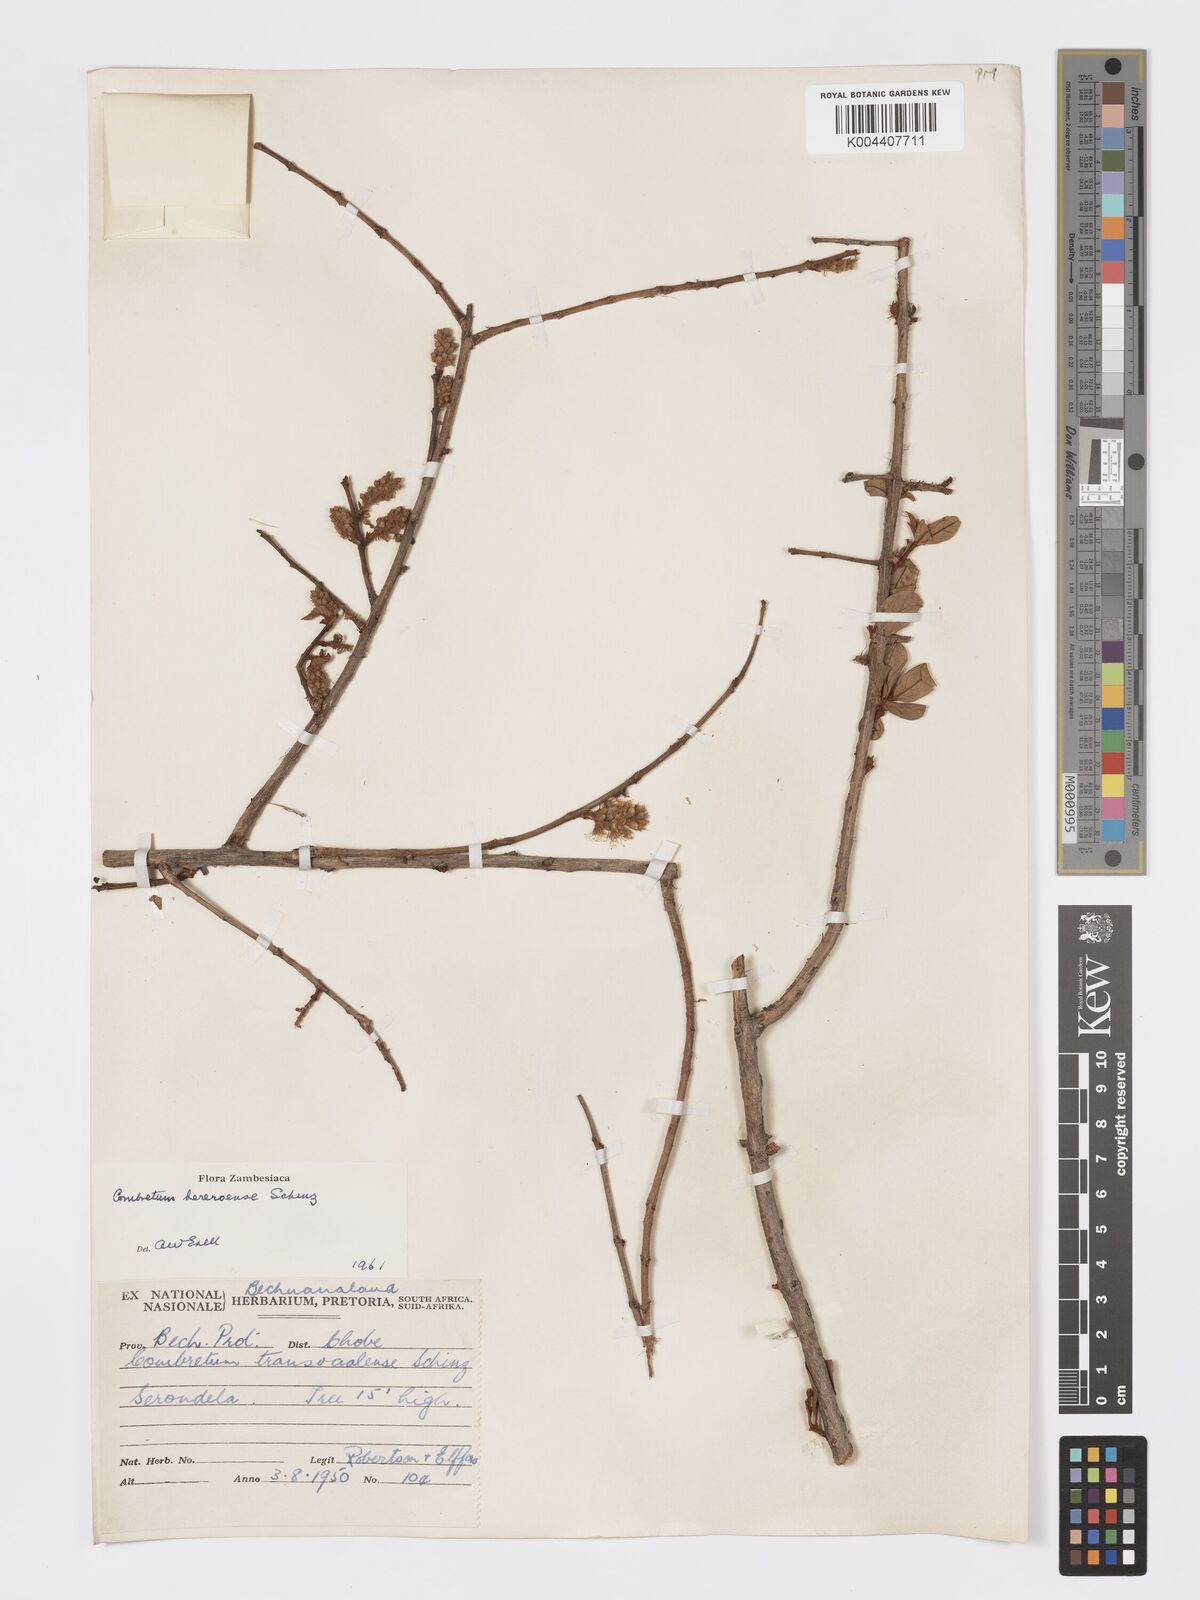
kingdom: Plantae
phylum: Tracheophyta
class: Magnoliopsida
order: Myrtales
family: Combretaceae
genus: Combretum
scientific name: Combretum hereroense
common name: Russet bushwillow
